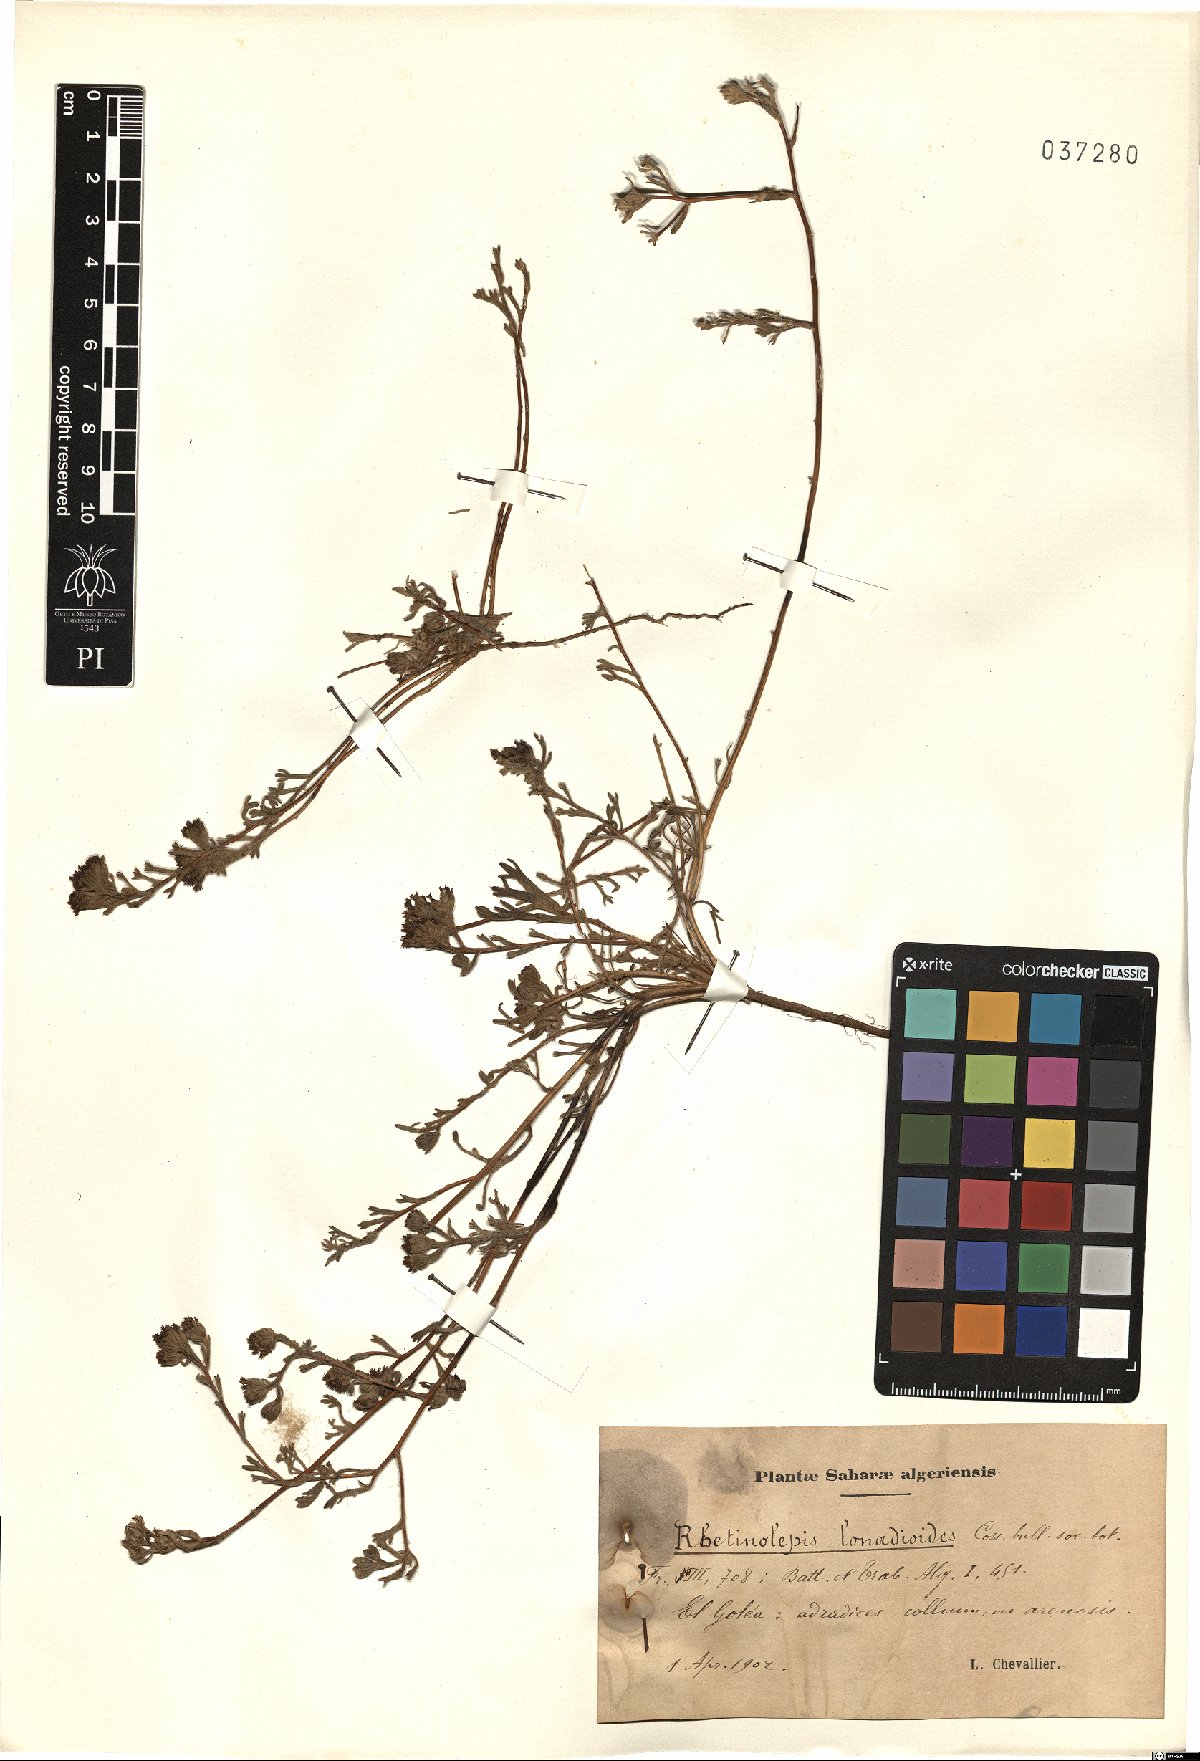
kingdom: Plantae
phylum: Tracheophyta
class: Magnoliopsida
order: Asterales
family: Asteraceae
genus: Rhetinolepis
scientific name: Rhetinolepis lonadioides
